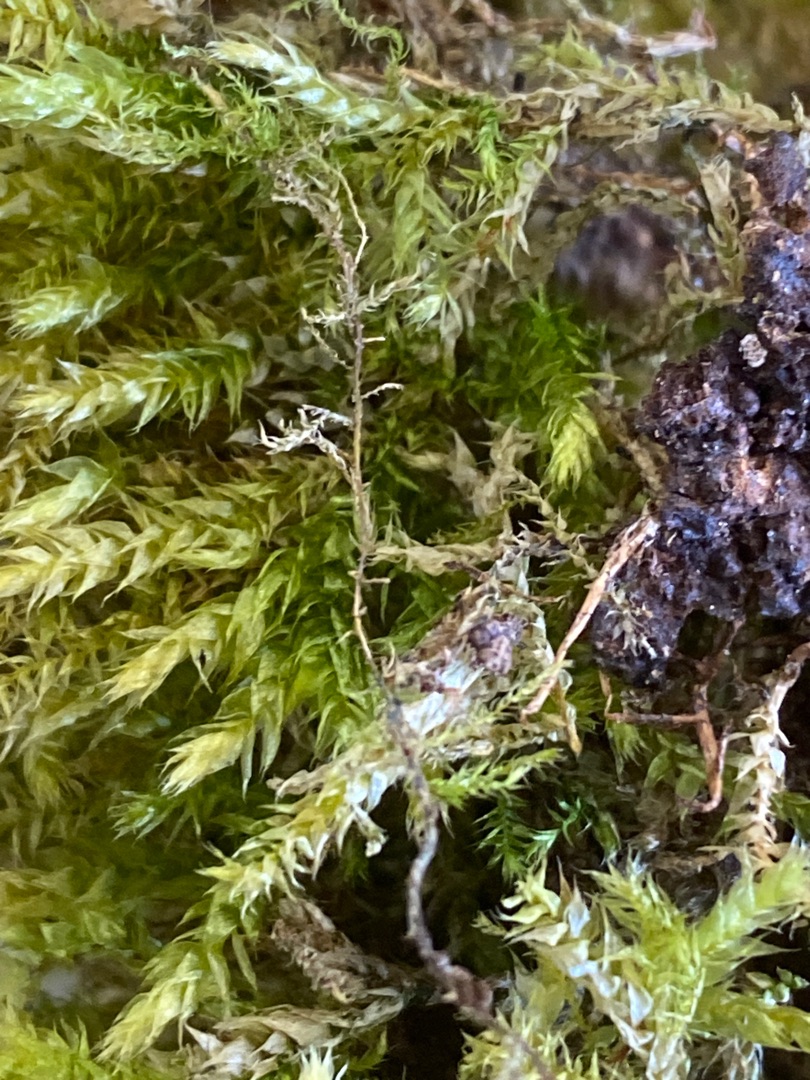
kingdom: Plantae
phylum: Bryophyta
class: Bryopsida
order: Hypnales
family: Brachytheciaceae
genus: Brachythecium
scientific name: Brachythecium rutabulum
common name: Almindelig kortkapsel
